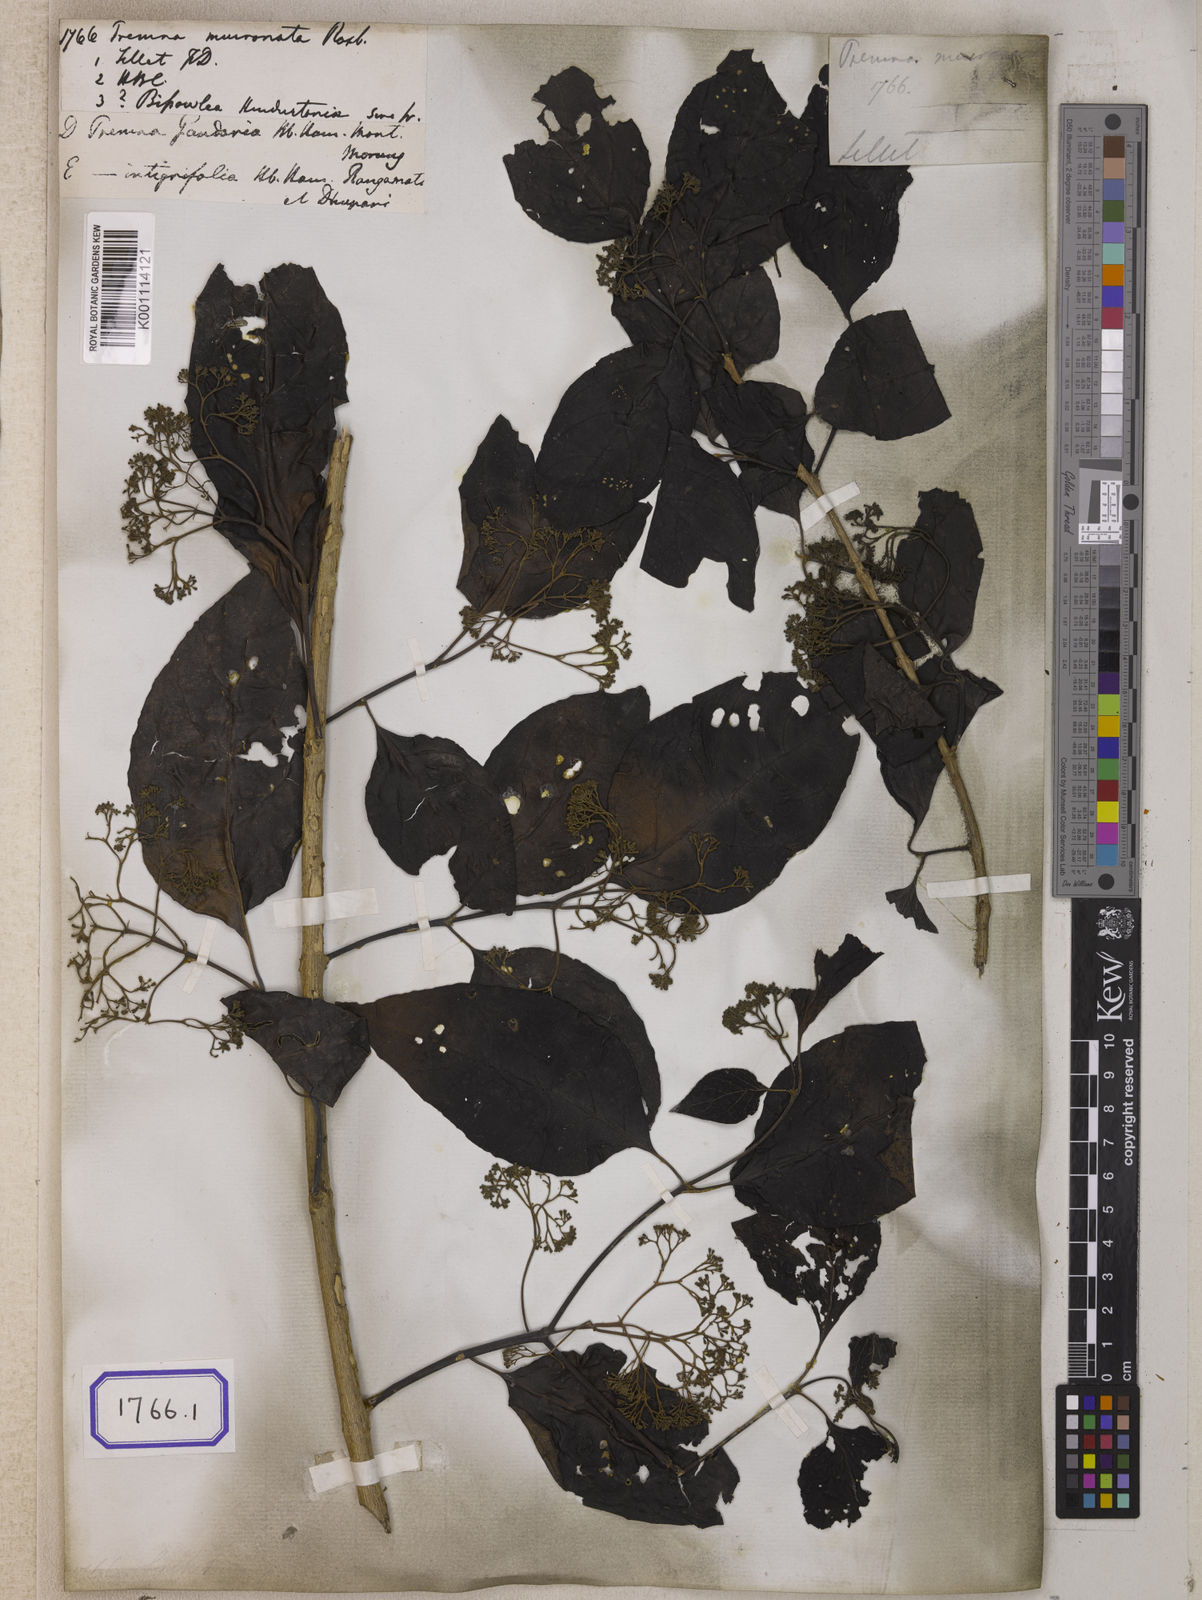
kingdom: Plantae
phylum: Tracheophyta
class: Magnoliopsida
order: Lamiales
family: Lamiaceae
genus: Premna
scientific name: Premna mollissima
